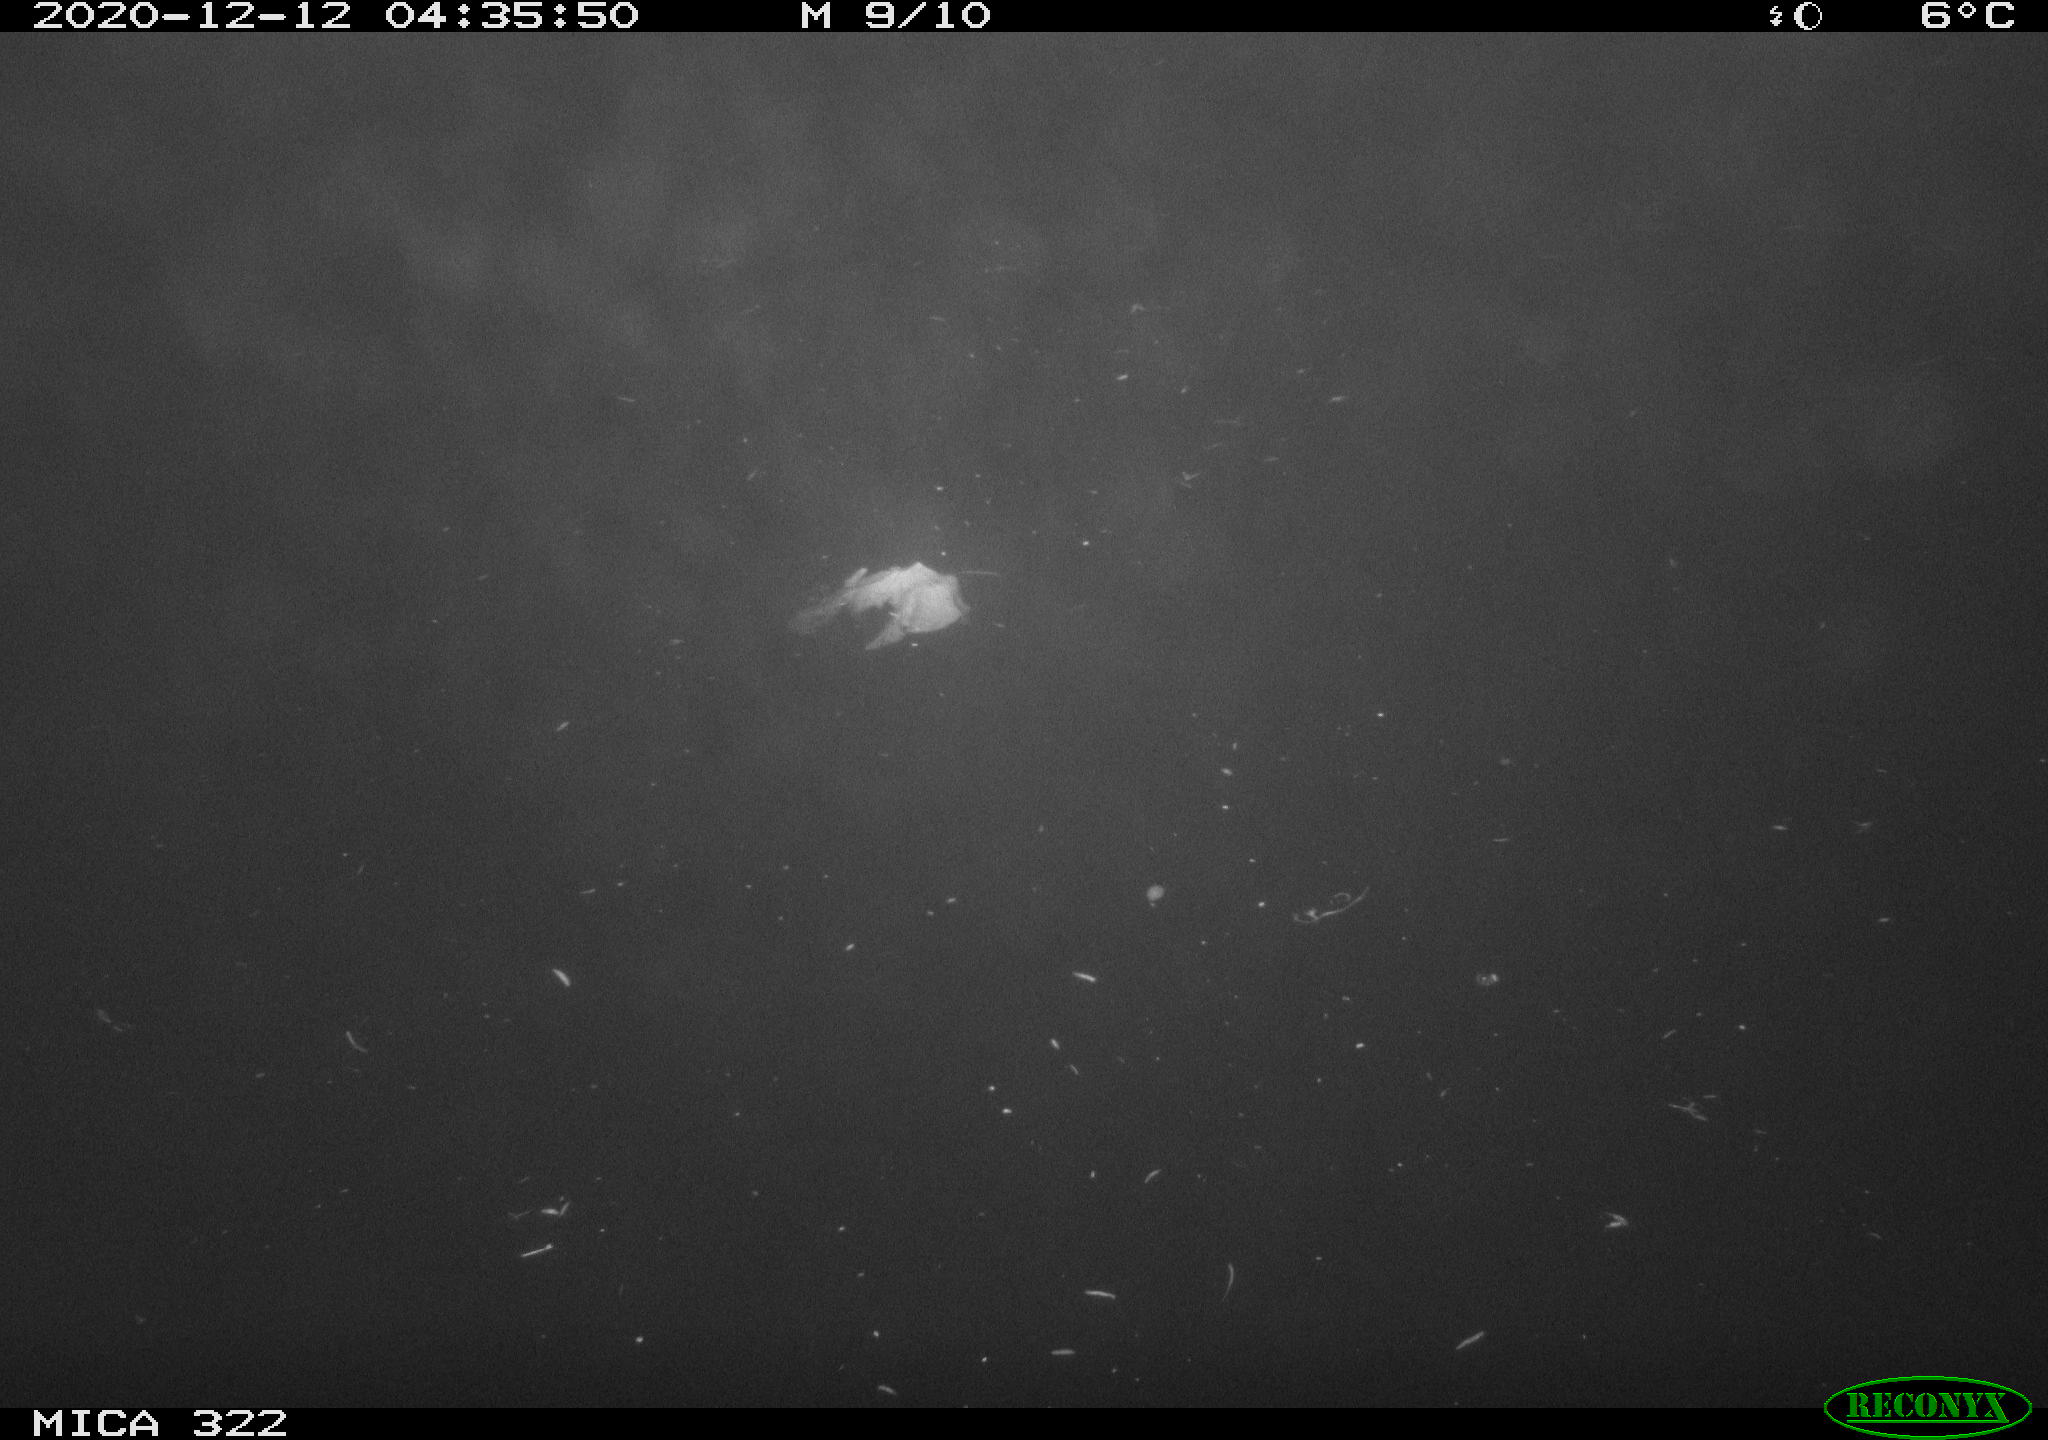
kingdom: Animalia
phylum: Chordata
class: Mammalia
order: Rodentia
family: Muridae
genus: Rattus
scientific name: Rattus norvegicus
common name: Brown rat
